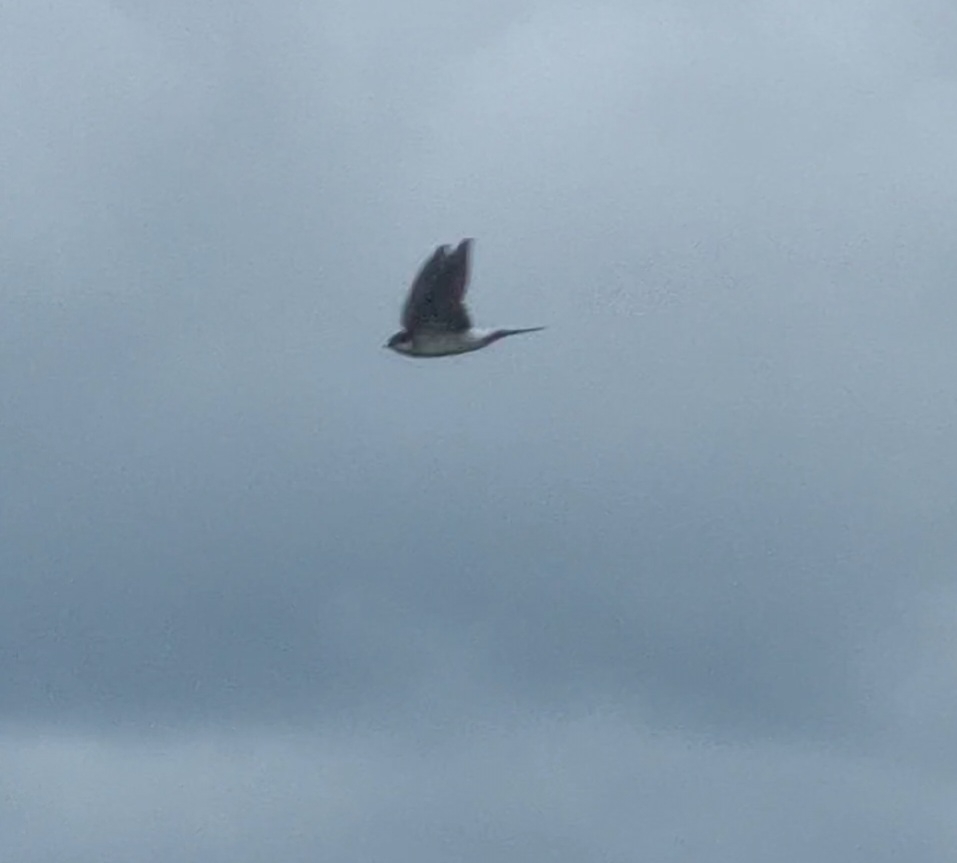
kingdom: Animalia
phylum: Chordata
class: Aves
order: Passeriformes
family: Hirundinidae
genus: Delichon
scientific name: Delichon urbicum
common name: Bysvale
